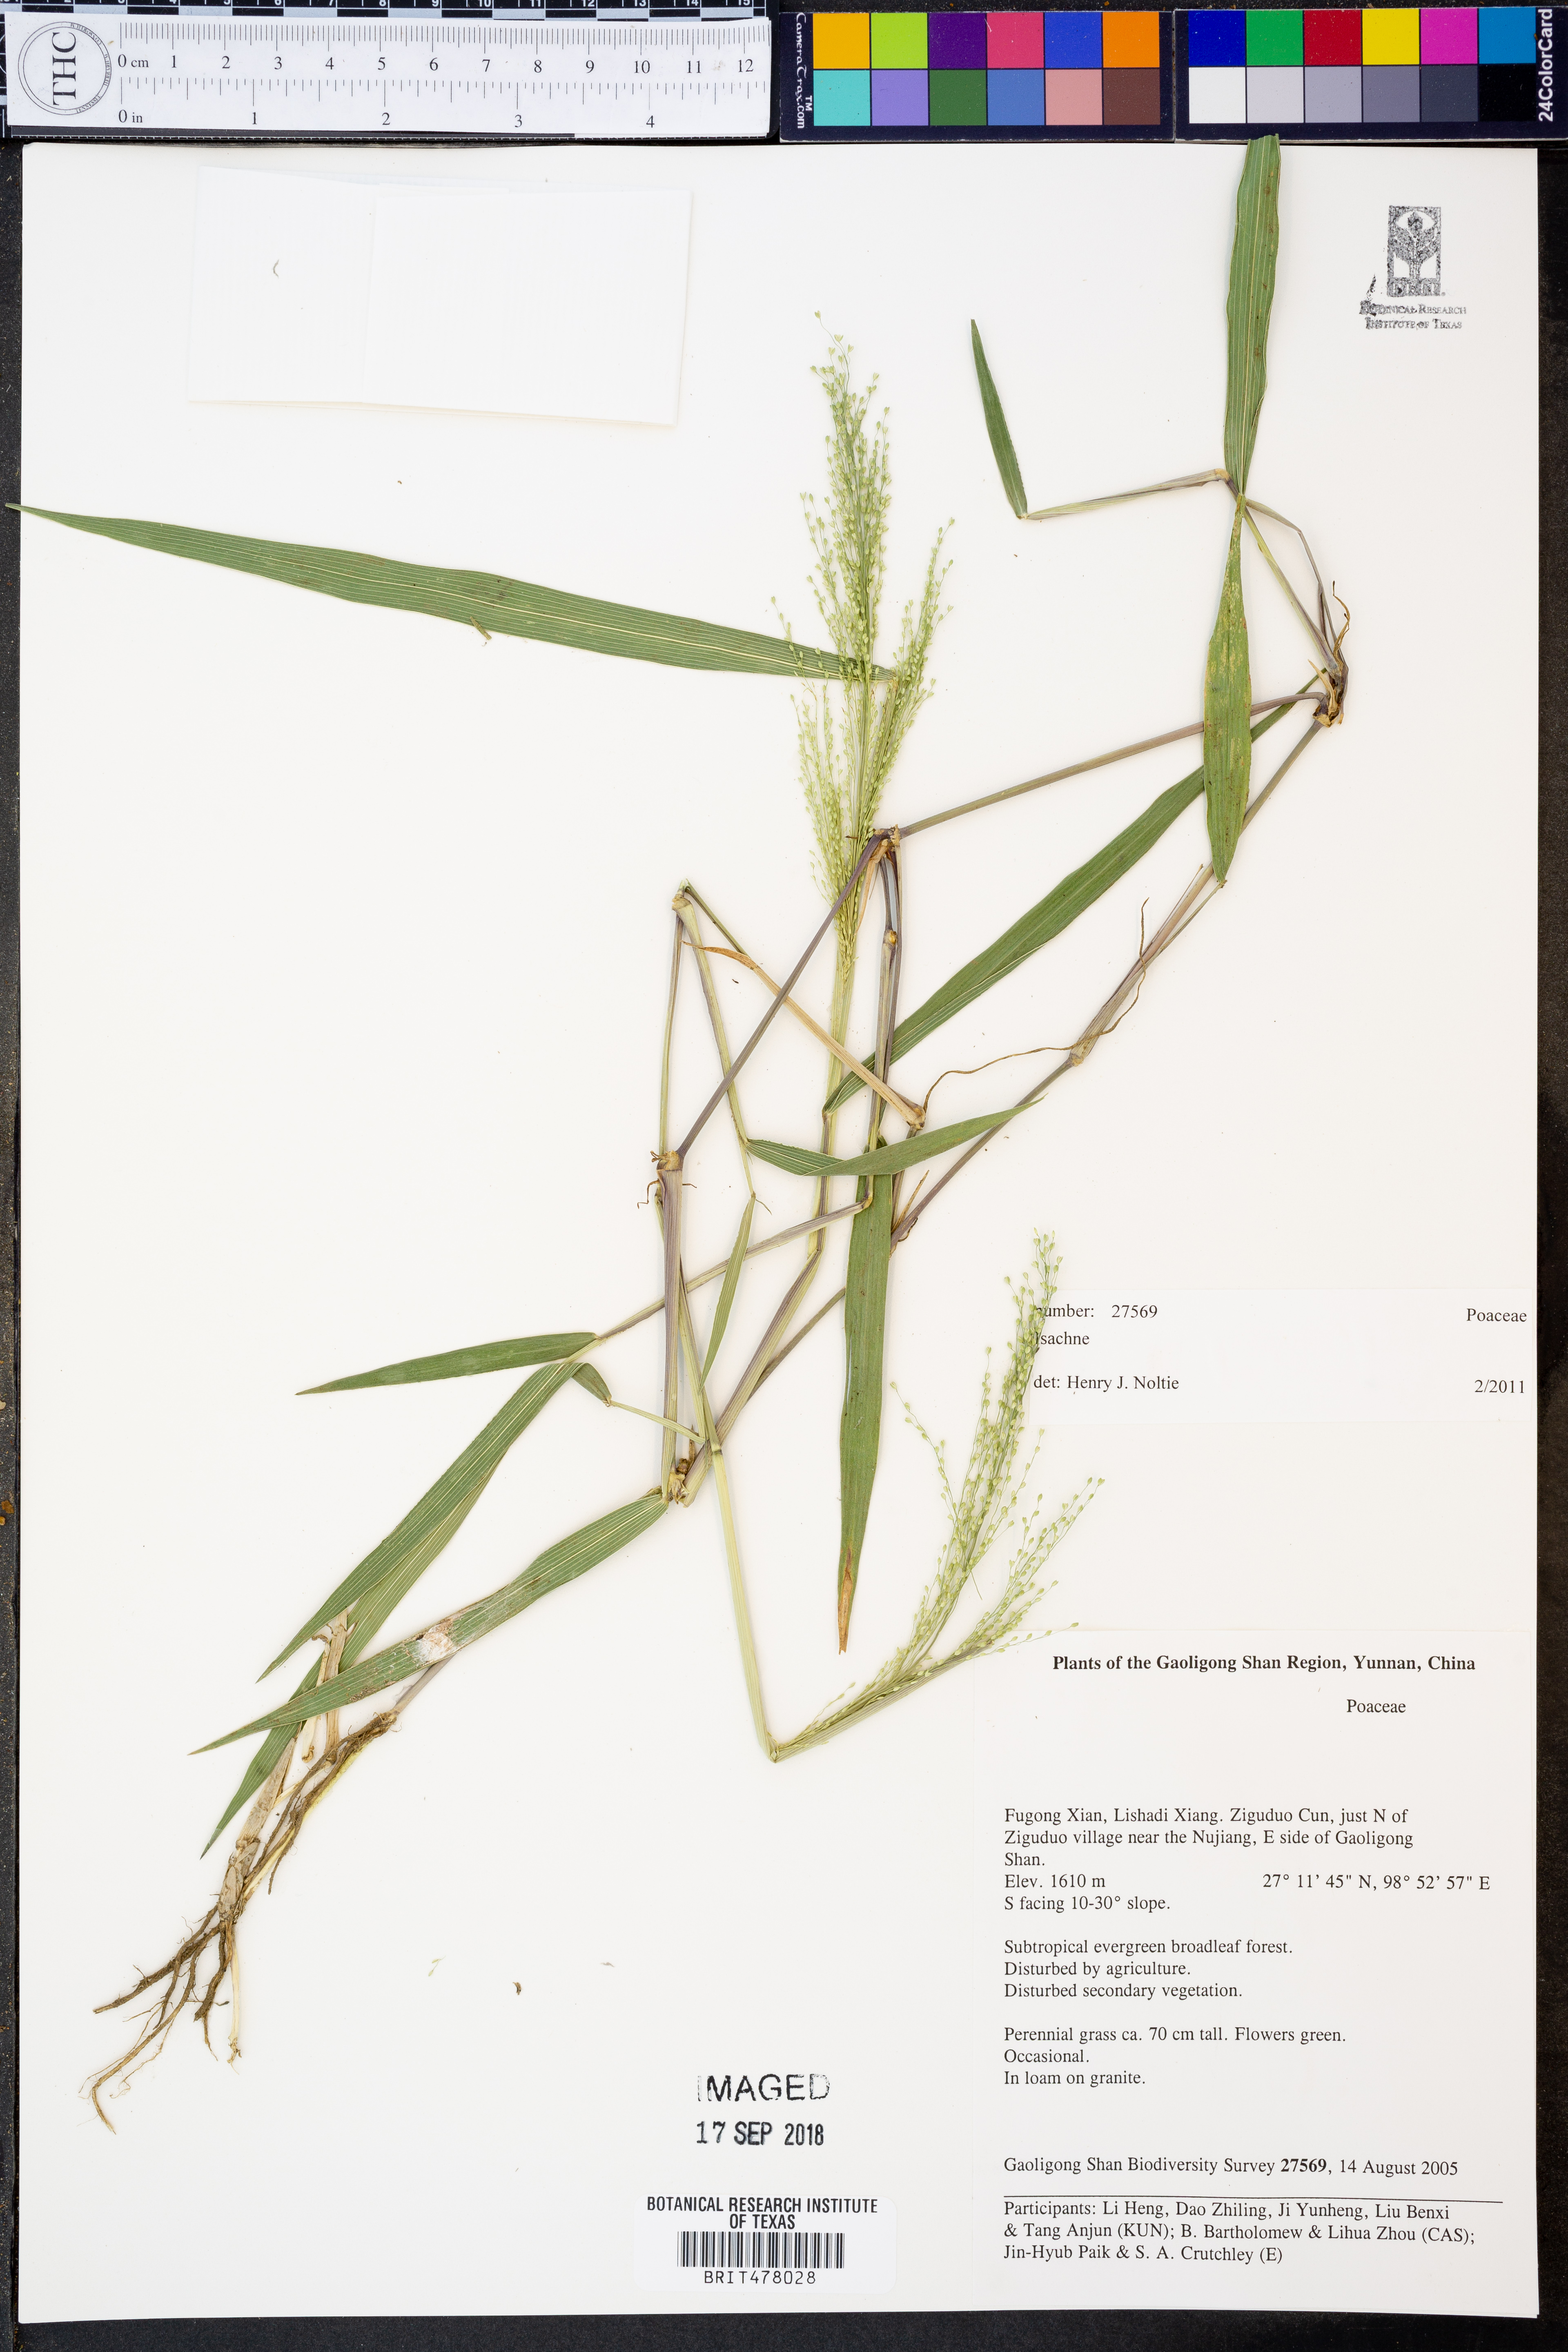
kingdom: Plantae
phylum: Tracheophyta
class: Liliopsida
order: Poales
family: Poaceae
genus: Isachne
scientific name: Isachne
